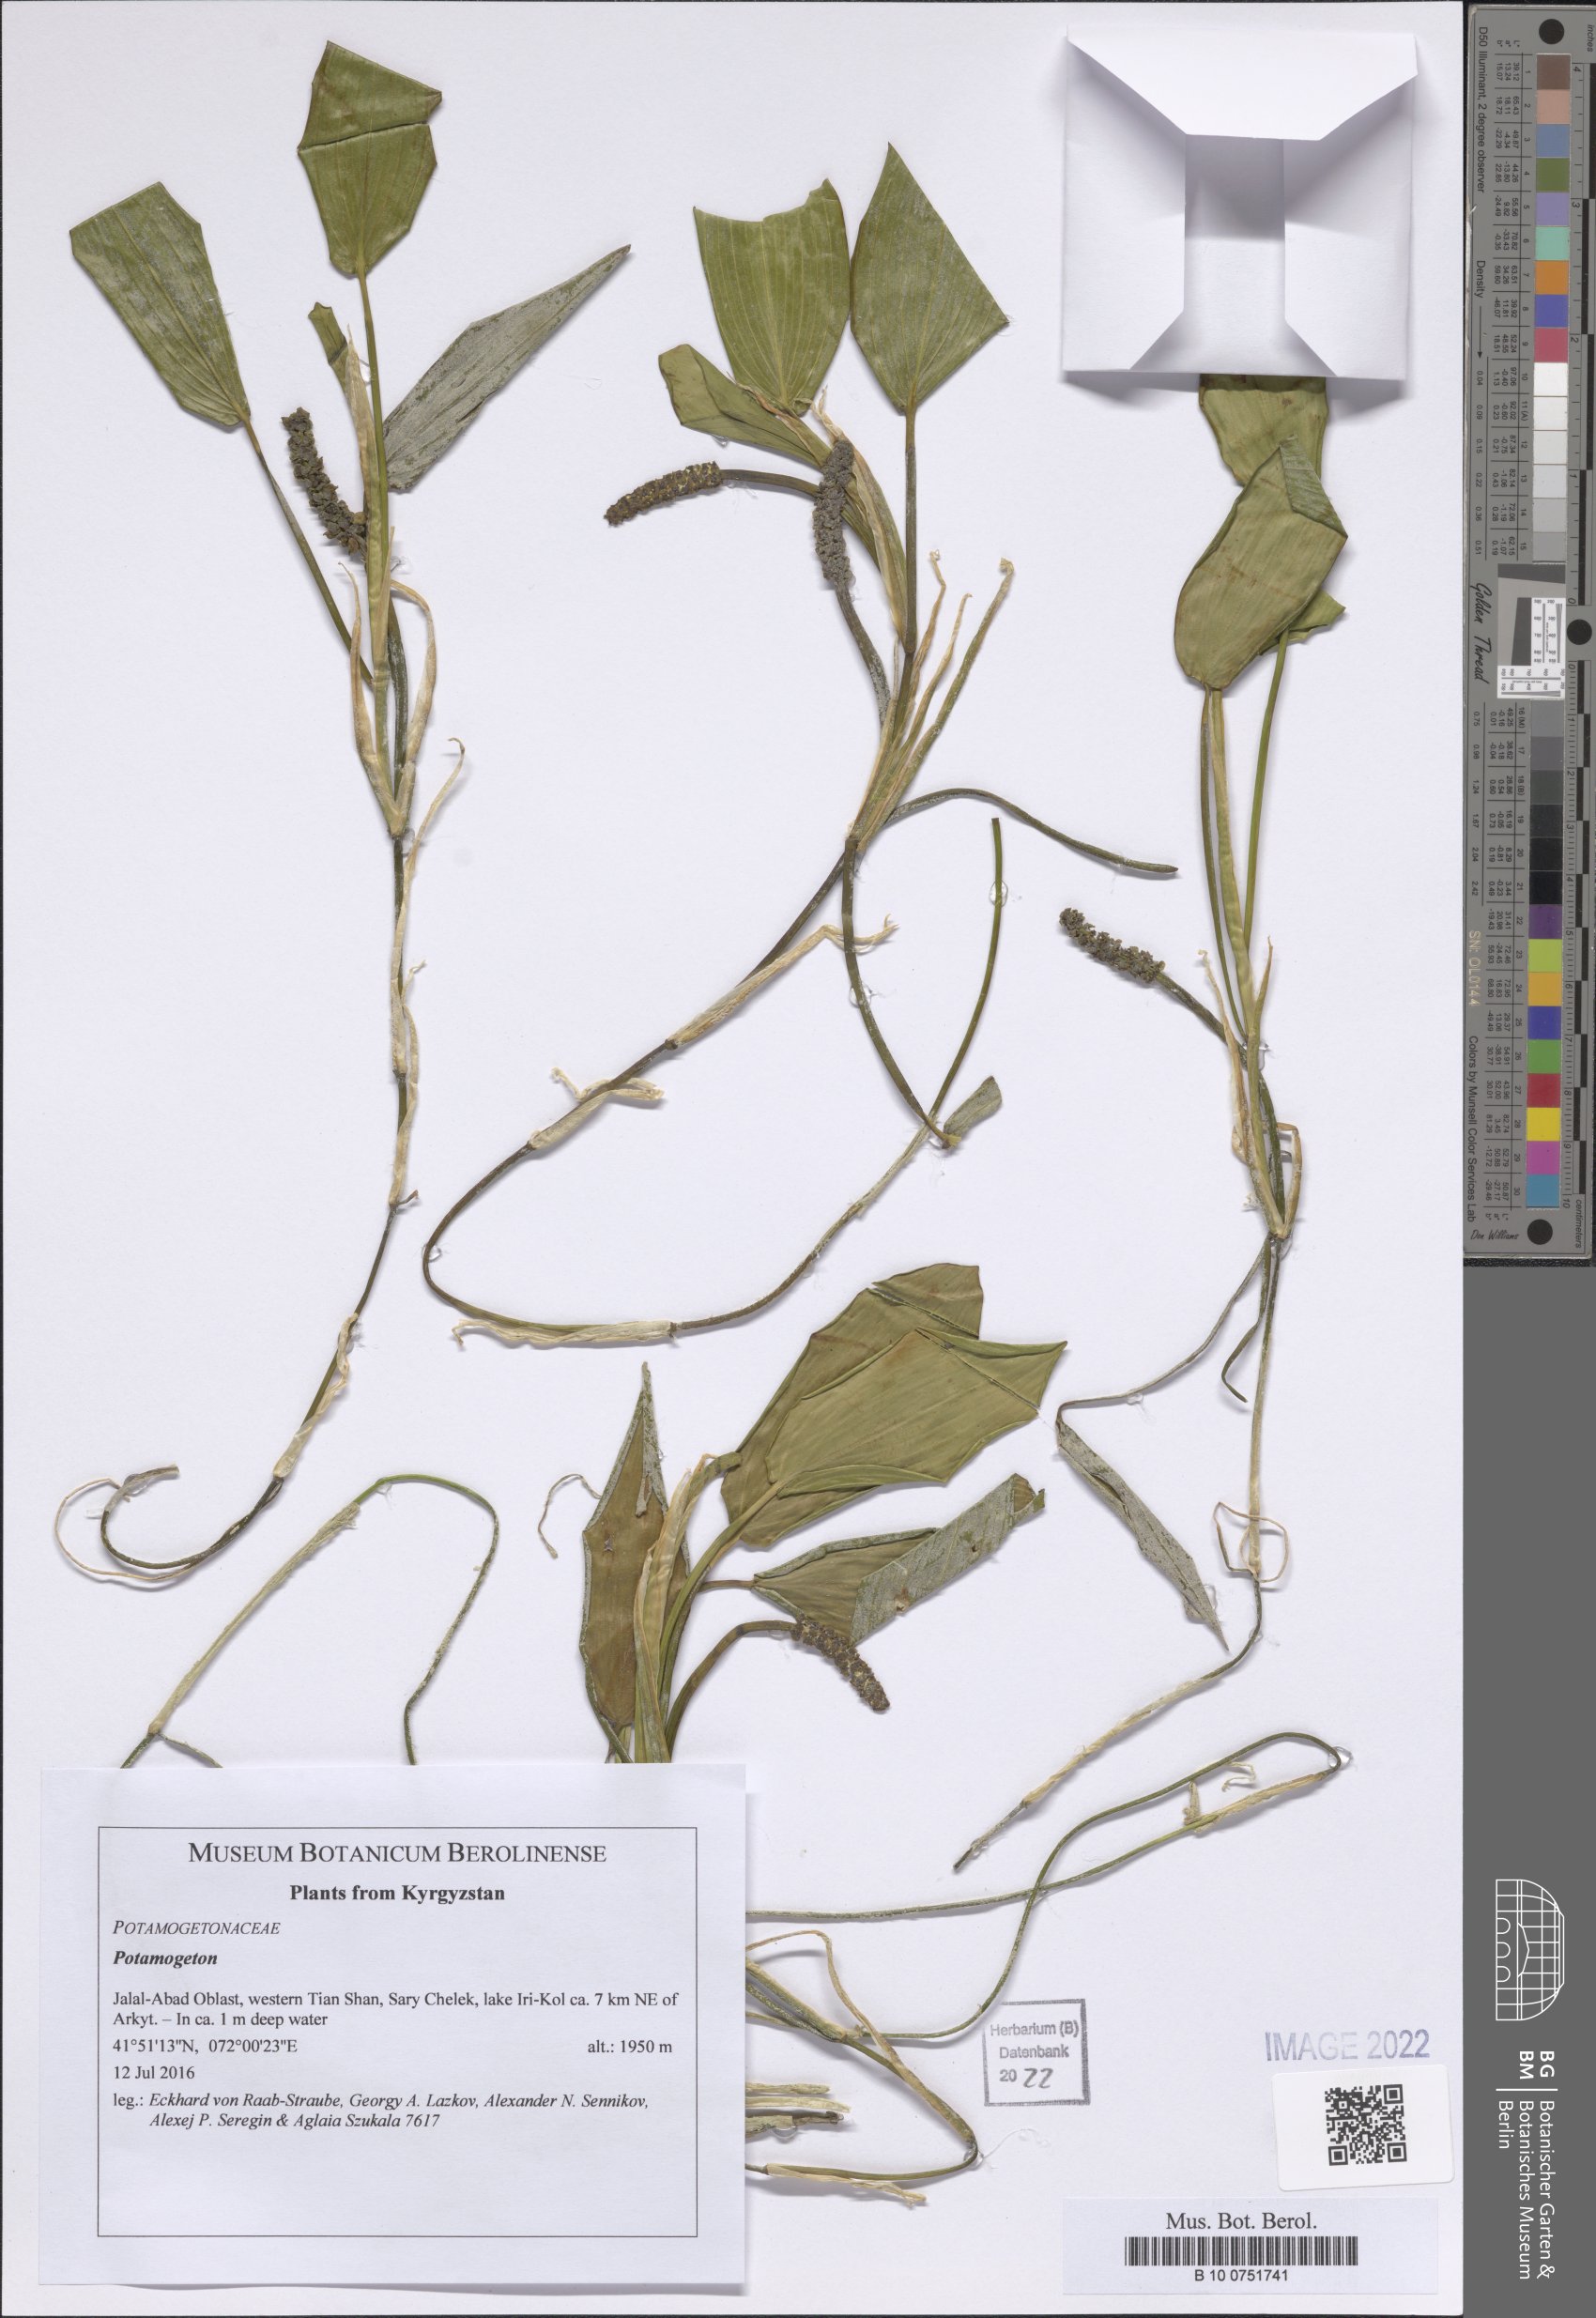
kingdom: Plantae
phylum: Tracheophyta
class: Liliopsida
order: Alismatales
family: Potamogetonaceae
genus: Potamogeton
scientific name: Potamogeton
